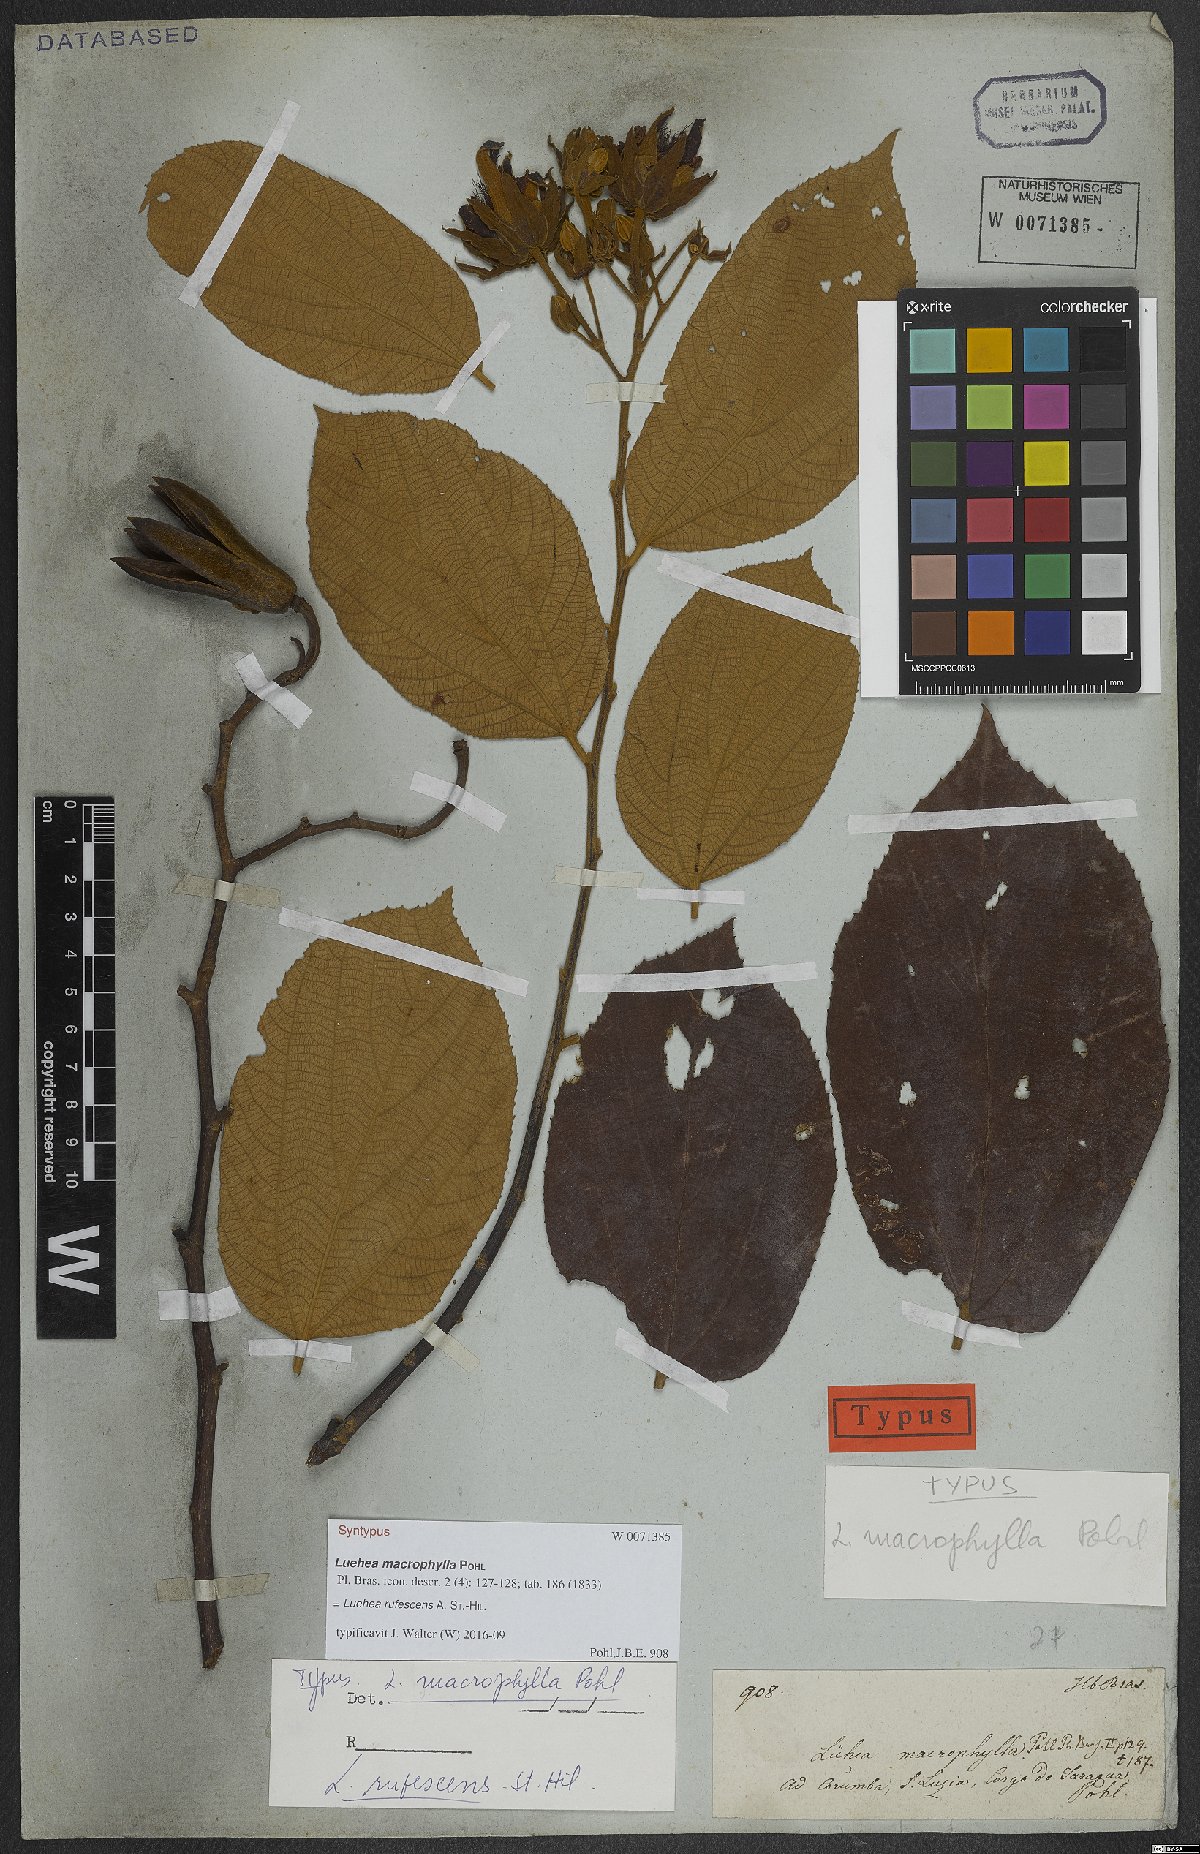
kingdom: Plantae
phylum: Tracheophyta
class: Magnoliopsida
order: Malvales
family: Malvaceae
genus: Luehea
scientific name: Luehea rufescens
